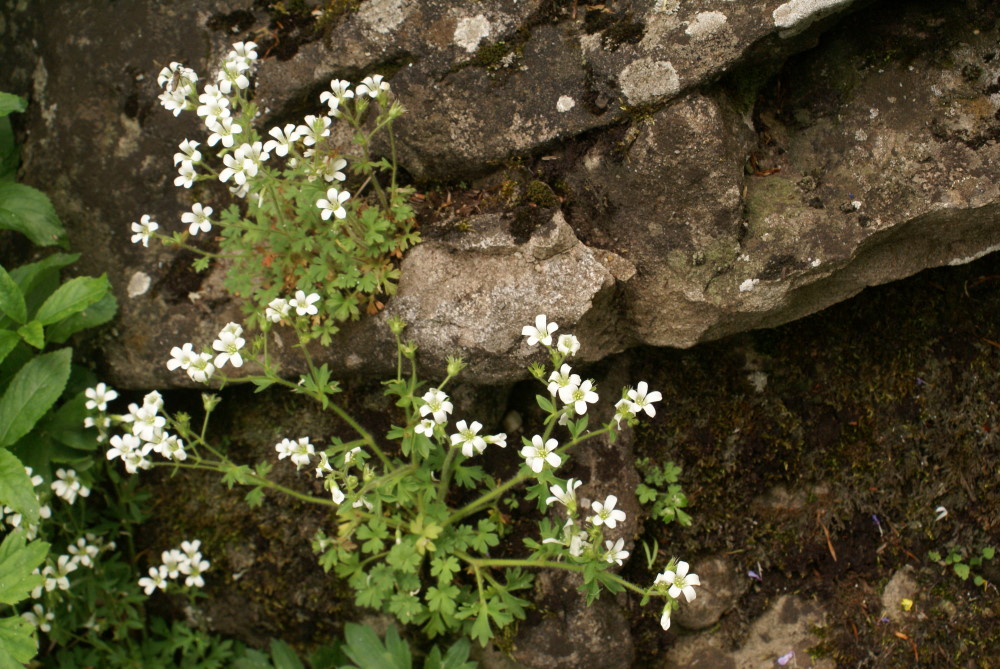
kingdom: Plantae
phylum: Tracheophyta
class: Magnoliopsida
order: Saxifragales
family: Saxifragaceae
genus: Saxifraga
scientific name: Saxifraga irrigua
